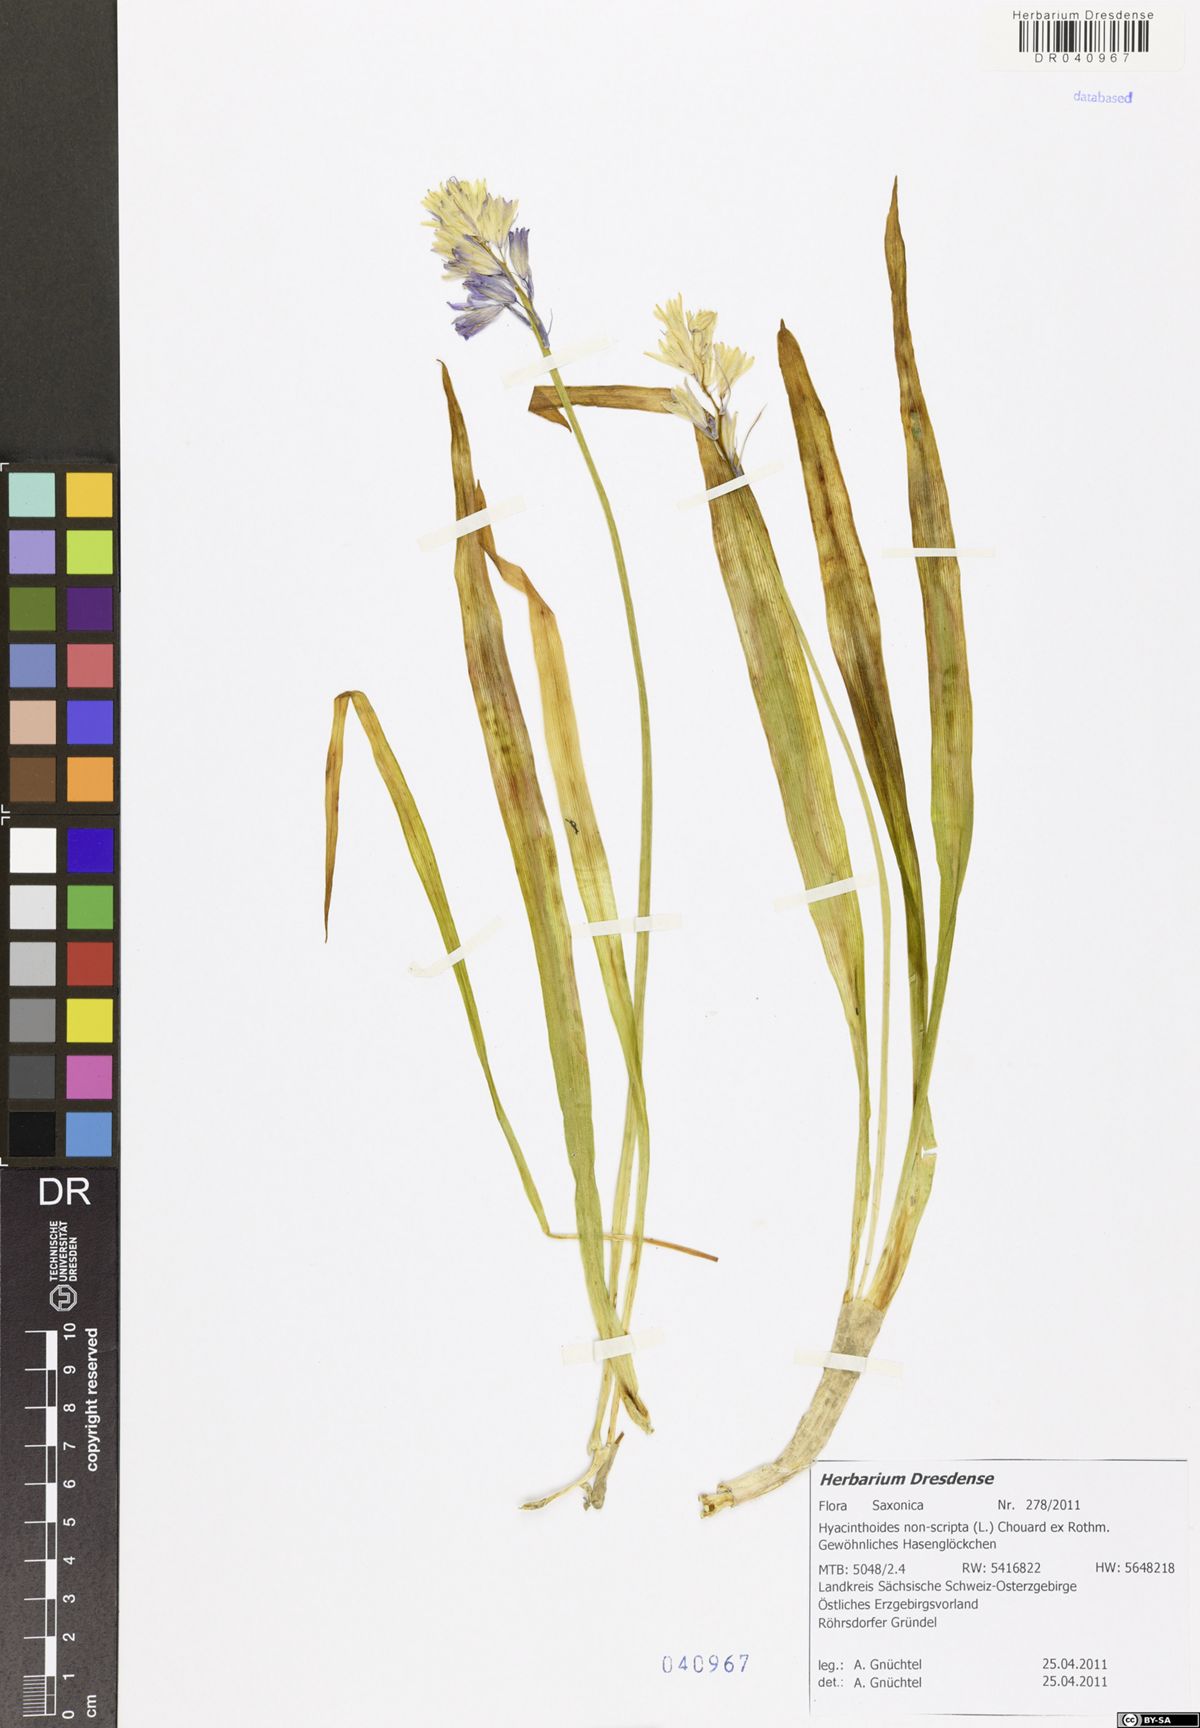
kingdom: Plantae
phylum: Tracheophyta
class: Liliopsida
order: Asparagales
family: Asparagaceae
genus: Hyacinthoides
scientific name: Hyacinthoides non-scripta
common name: Bluebell
